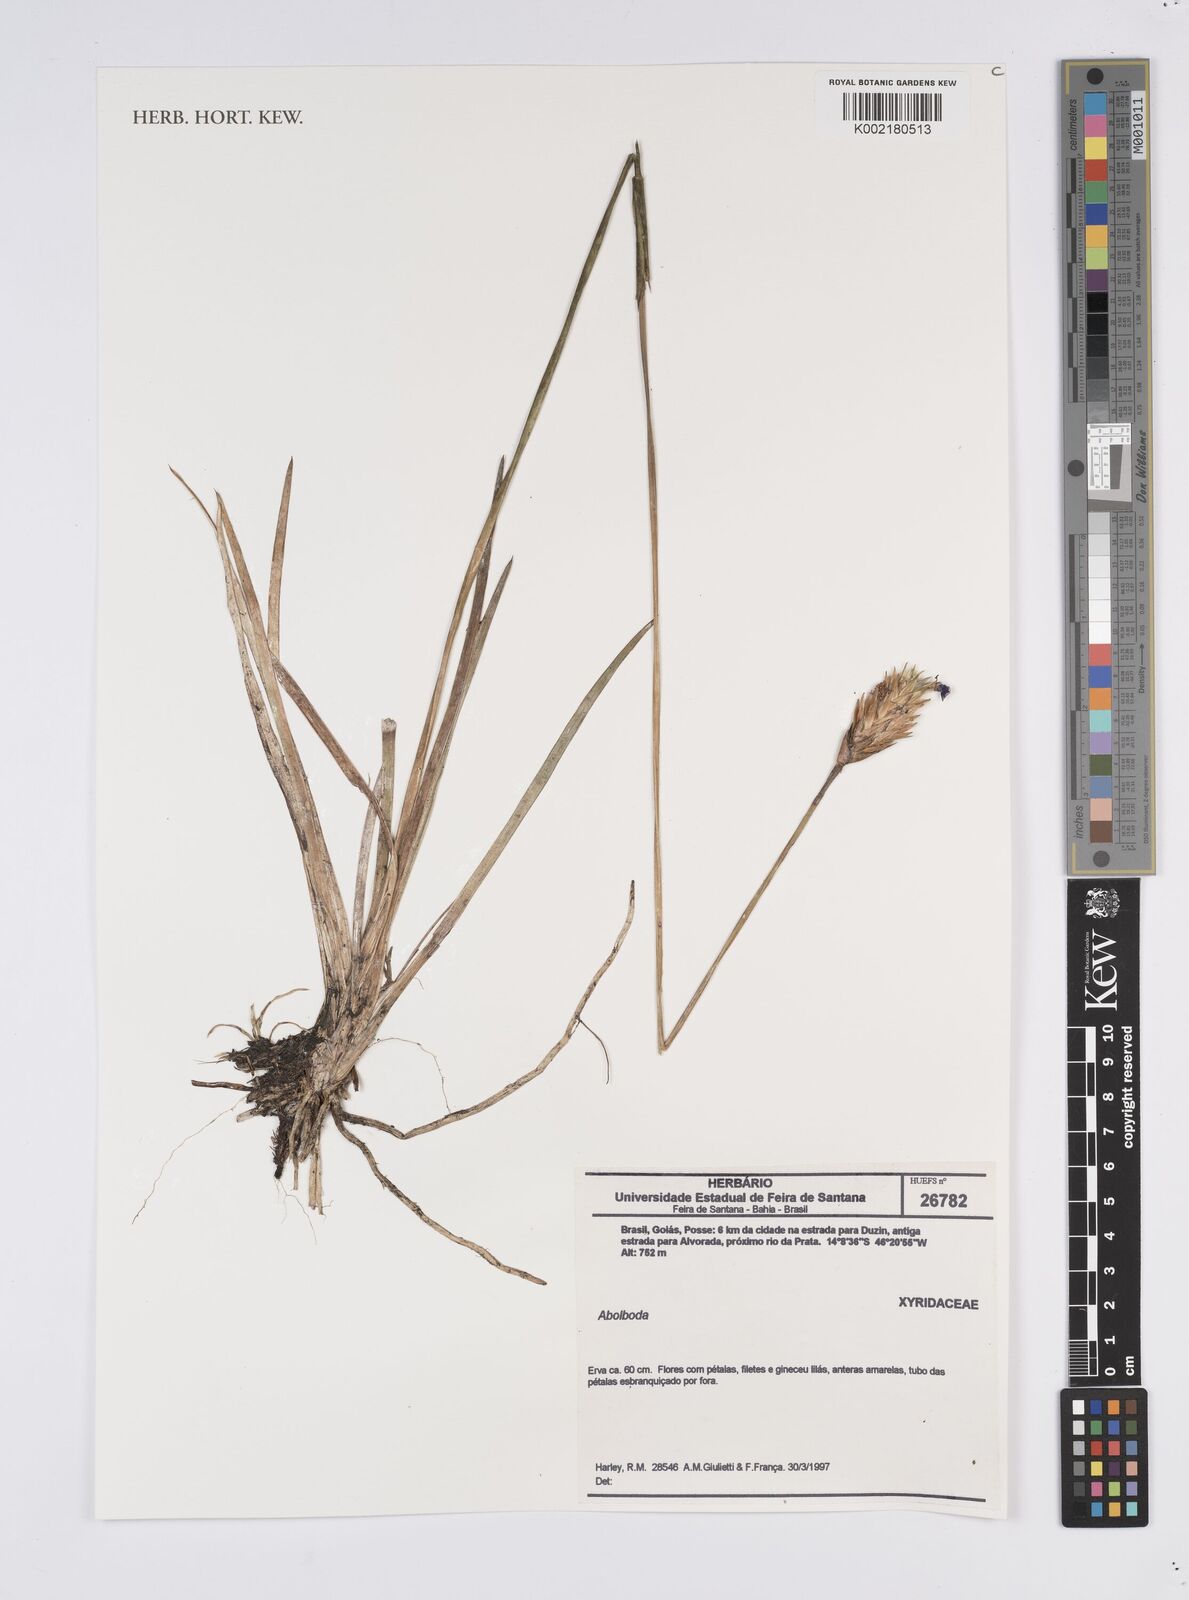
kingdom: Plantae
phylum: Tracheophyta
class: Liliopsida
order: Poales
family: Xyridaceae
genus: Abolboda
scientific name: Abolboda
